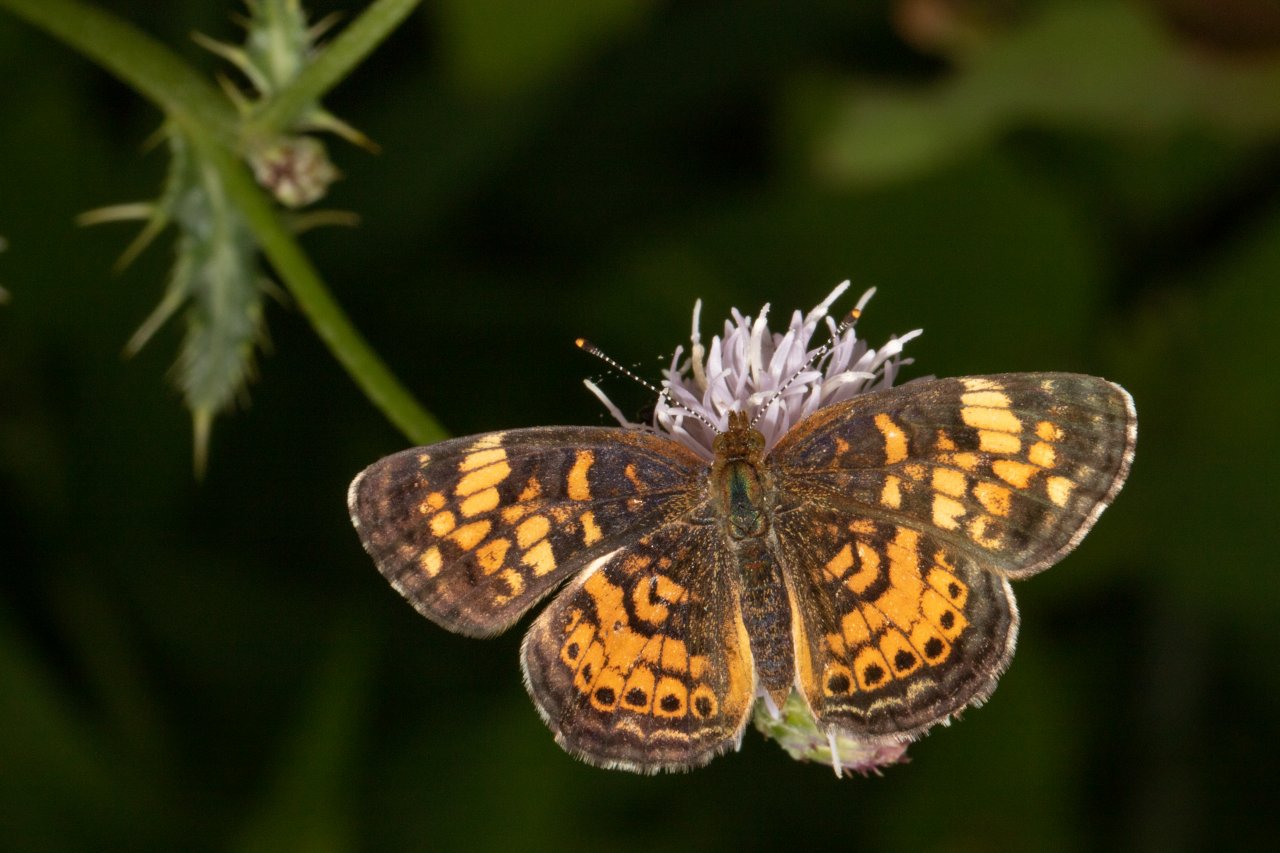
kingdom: Animalia
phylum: Arthropoda
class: Insecta
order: Lepidoptera
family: Nymphalidae
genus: Phyciodes
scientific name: Phyciodes
